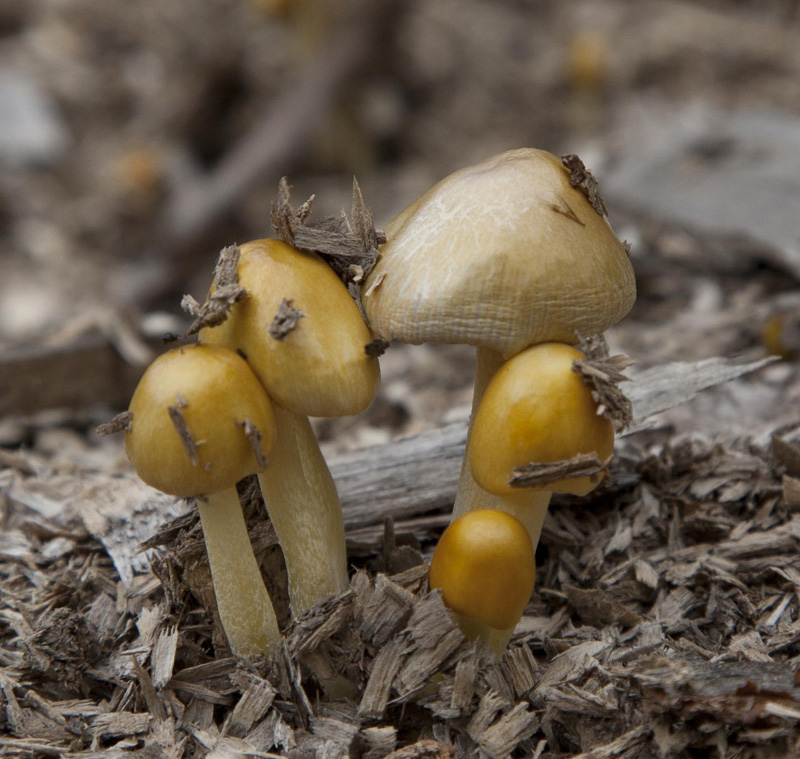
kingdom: Fungi
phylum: Basidiomycota
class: Agaricomycetes
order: Agaricales
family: Bolbitiaceae
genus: Bolbitius
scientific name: Bolbitius titubans
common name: almindelig gulhat
